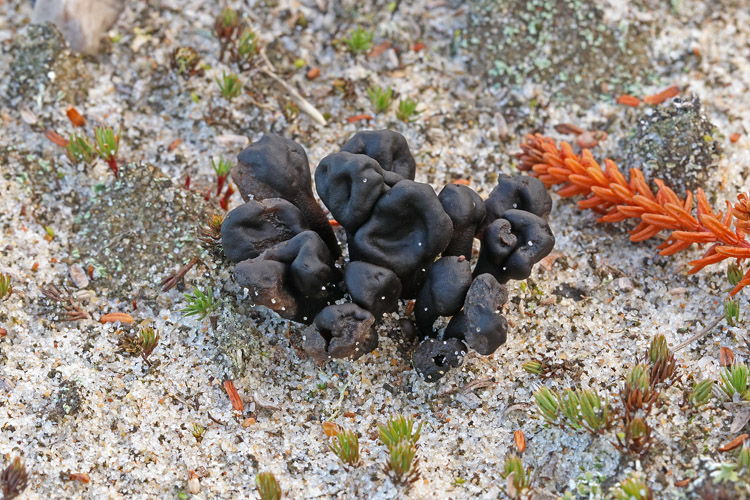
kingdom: Fungi
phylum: Ascomycota
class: Geoglossomycetes
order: Geoglossales
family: Geoglossaceae
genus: Sabuloglossum
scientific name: Sabuloglossum arenarium
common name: klit-jordtunge
